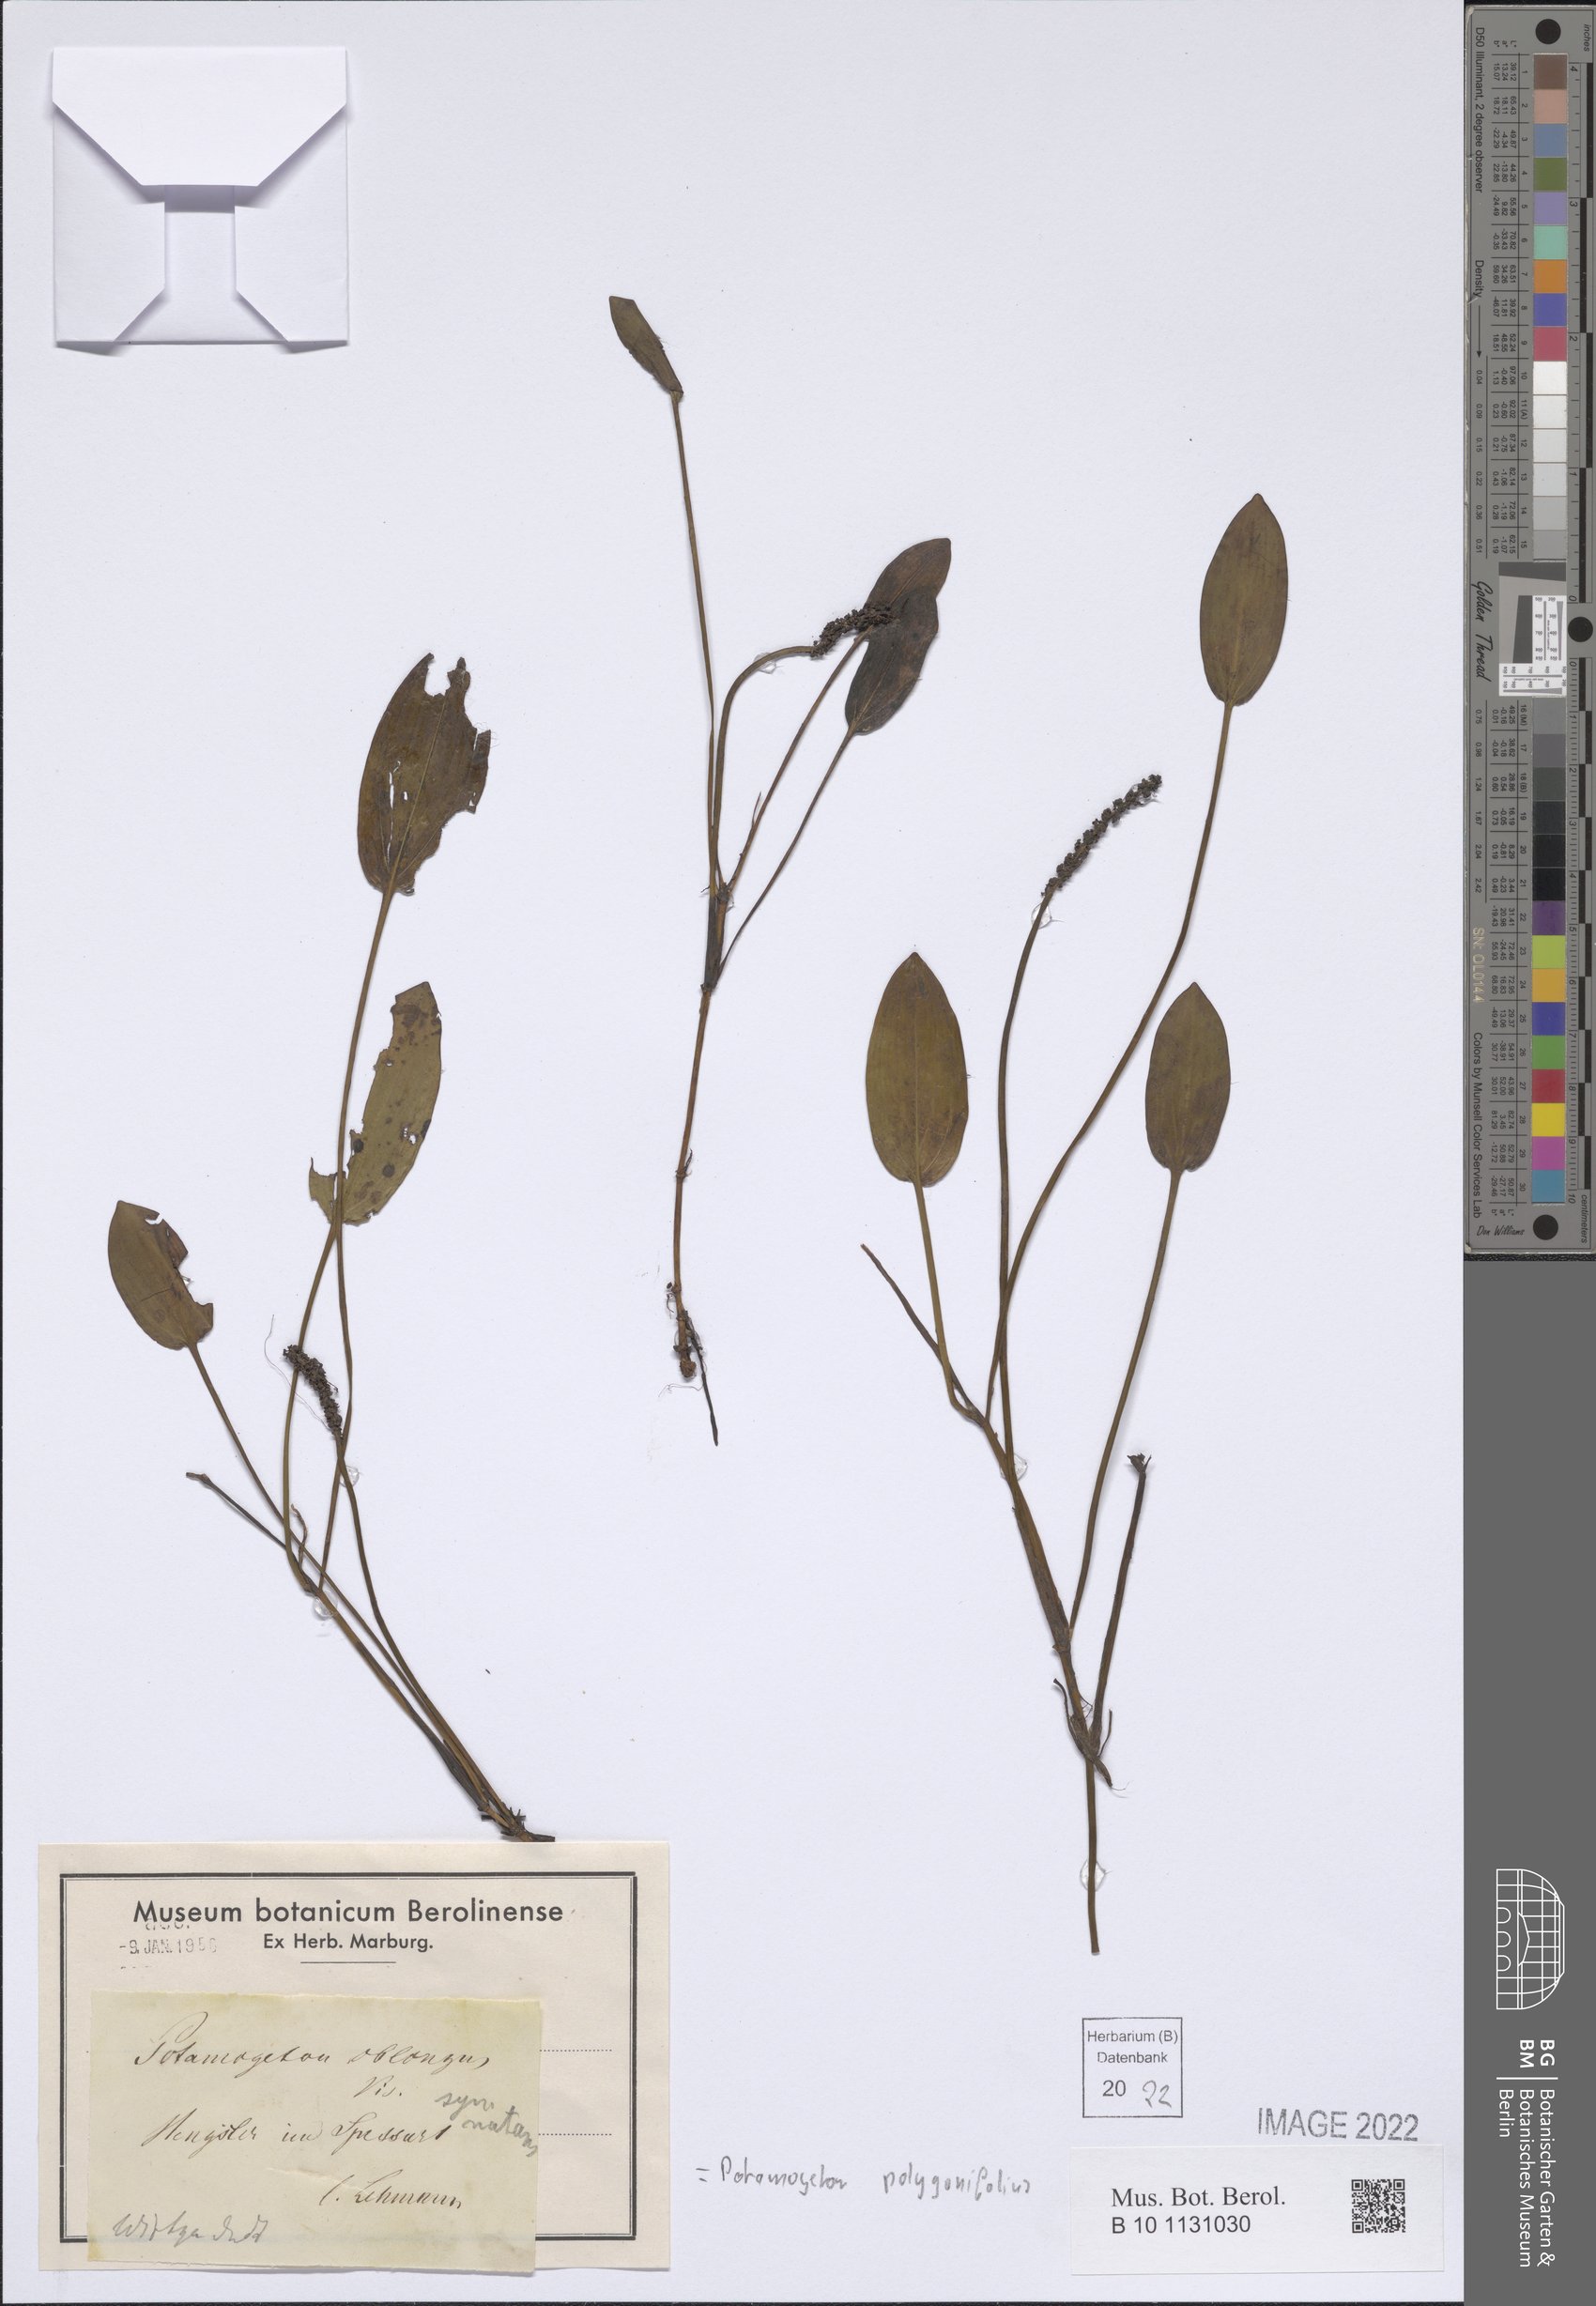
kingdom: Plantae
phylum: Tracheophyta
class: Liliopsida
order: Alismatales
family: Potamogetonaceae
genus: Potamogeton
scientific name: Potamogeton polygonifolius
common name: Bog pondweed
